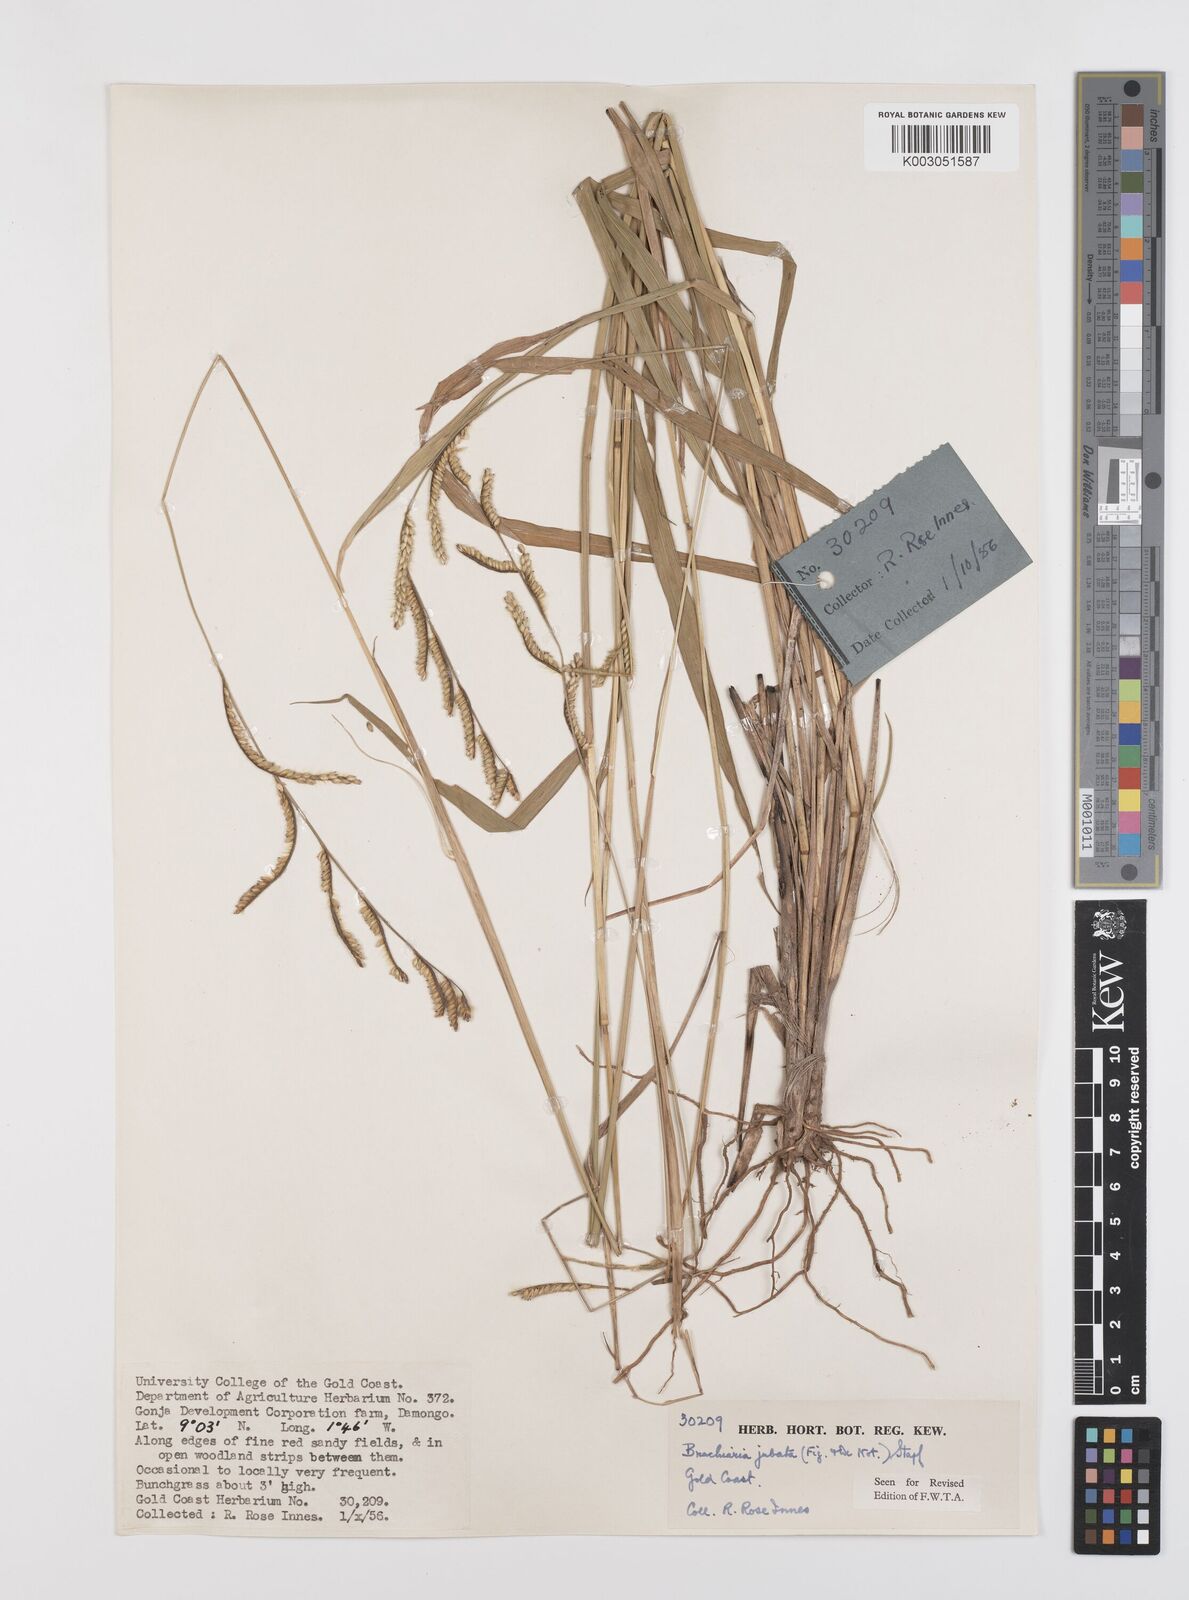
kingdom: Plantae
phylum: Tracheophyta
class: Liliopsida
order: Poales
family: Poaceae
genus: Urochloa
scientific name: Urochloa jubata
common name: Buffalograss
